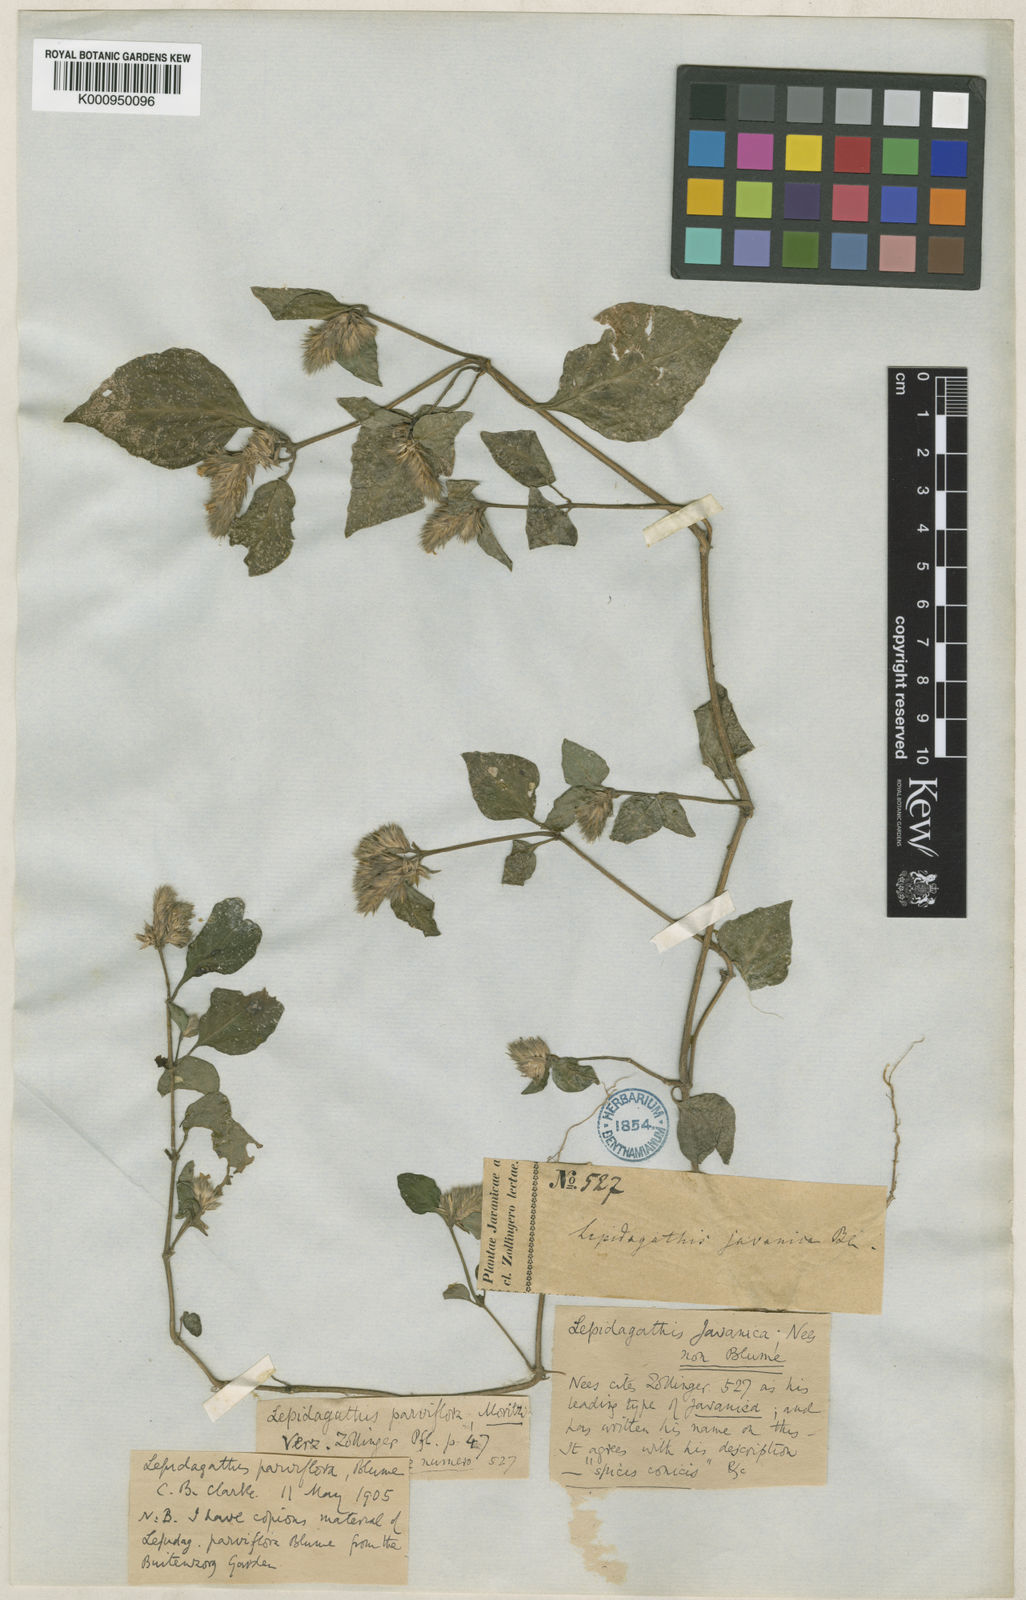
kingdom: Plantae
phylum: Tracheophyta
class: Magnoliopsida
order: Lamiales
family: Acanthaceae
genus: Lepidagathis
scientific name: Lepidagathis parviflora
